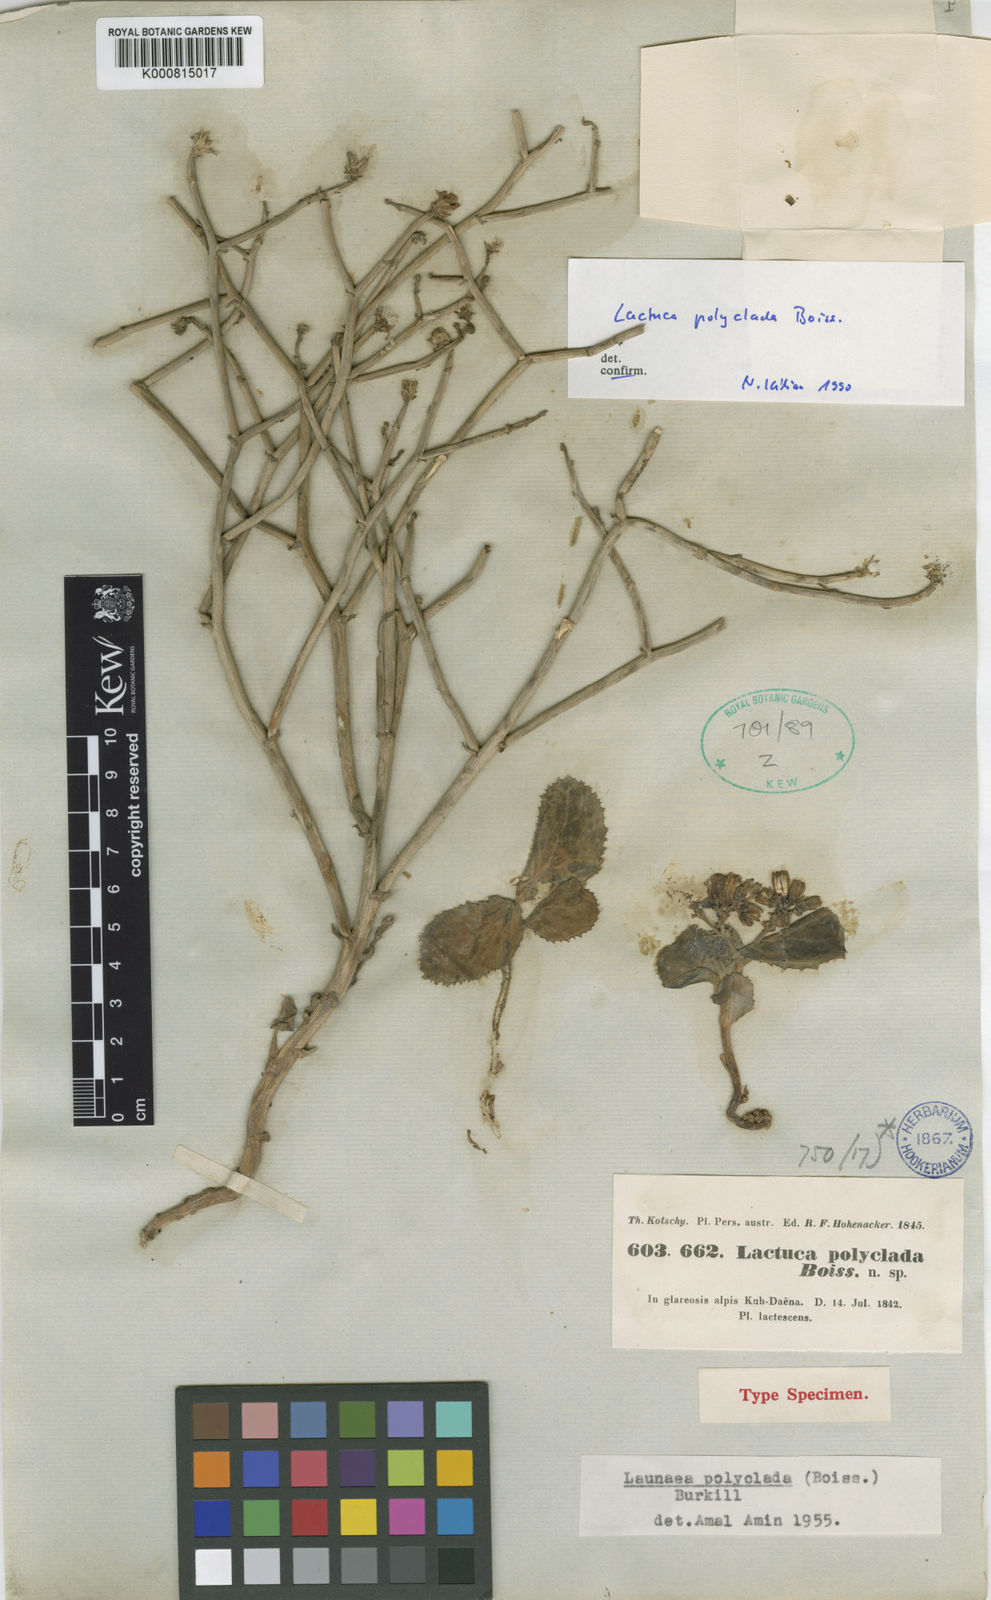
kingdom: Plantae
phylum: Tracheophyta
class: Magnoliopsida
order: Asterales
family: Asteraceae
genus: Lactuca
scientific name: Lactuca polyclada
